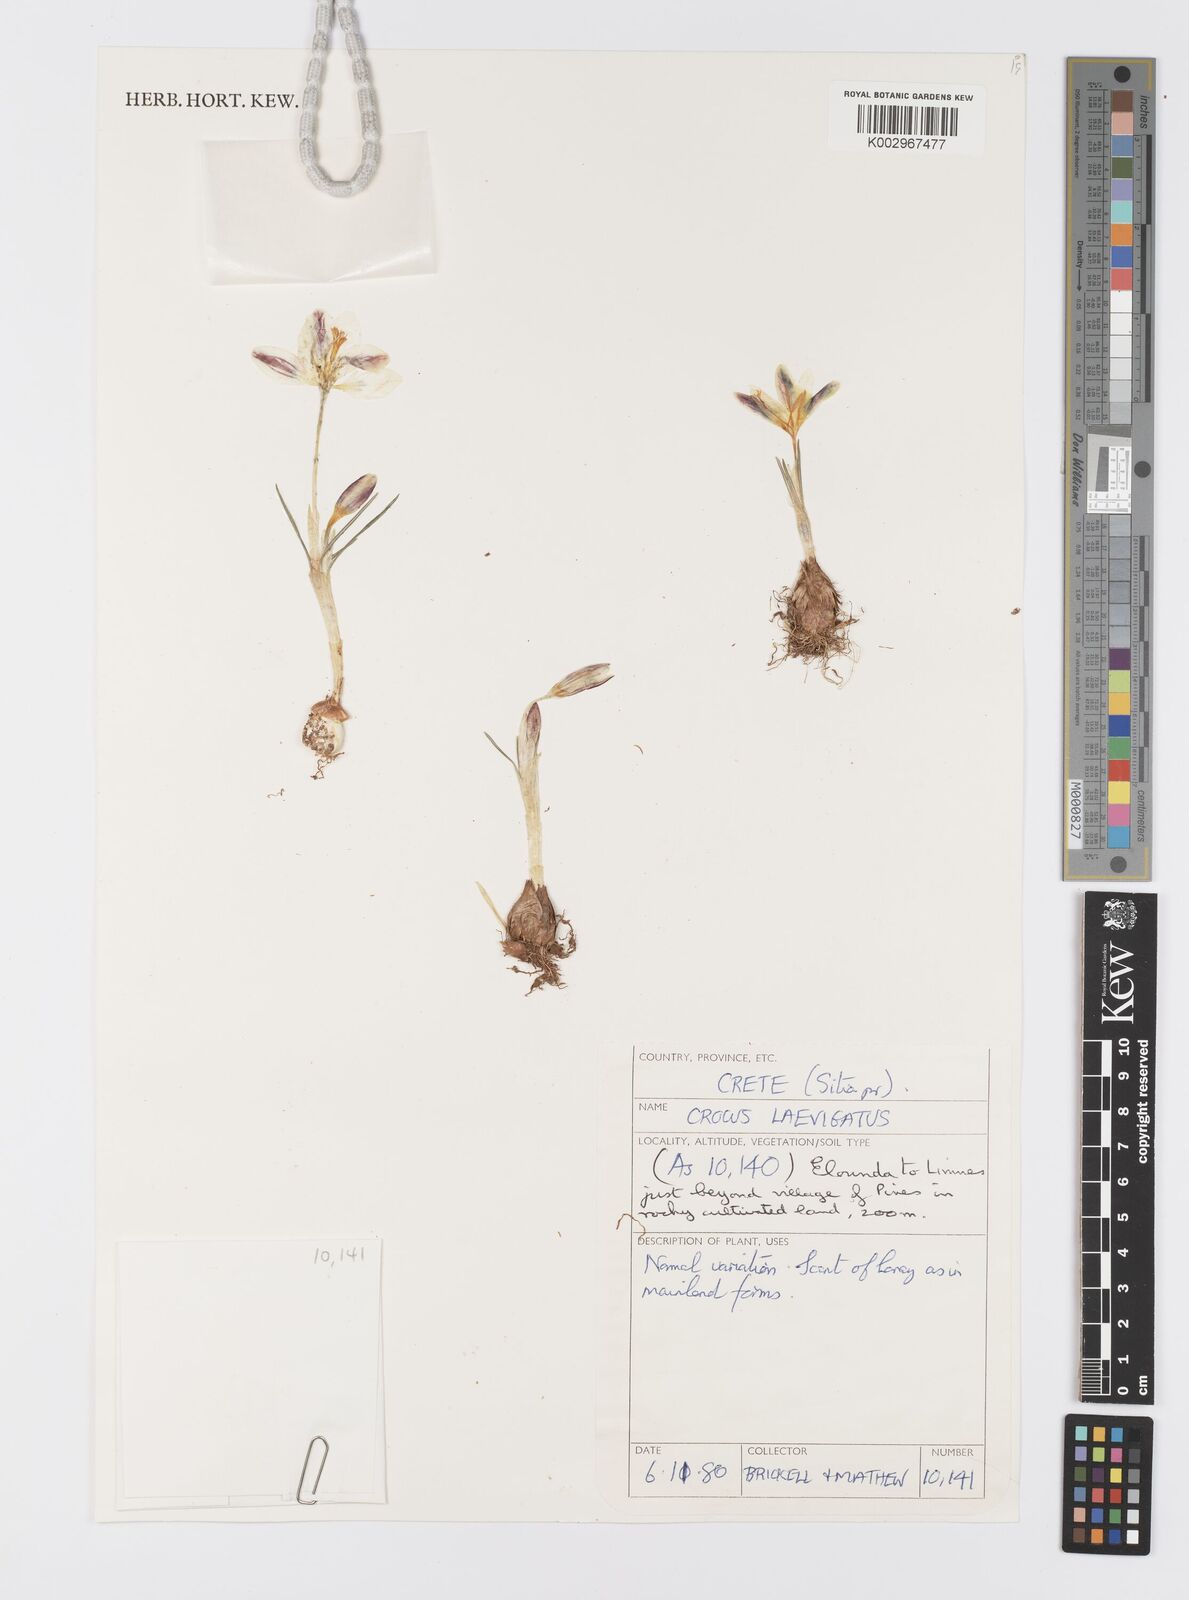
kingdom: Plantae
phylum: Tracheophyta
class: Liliopsida
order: Asparagales
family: Iridaceae
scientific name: Iridaceae
